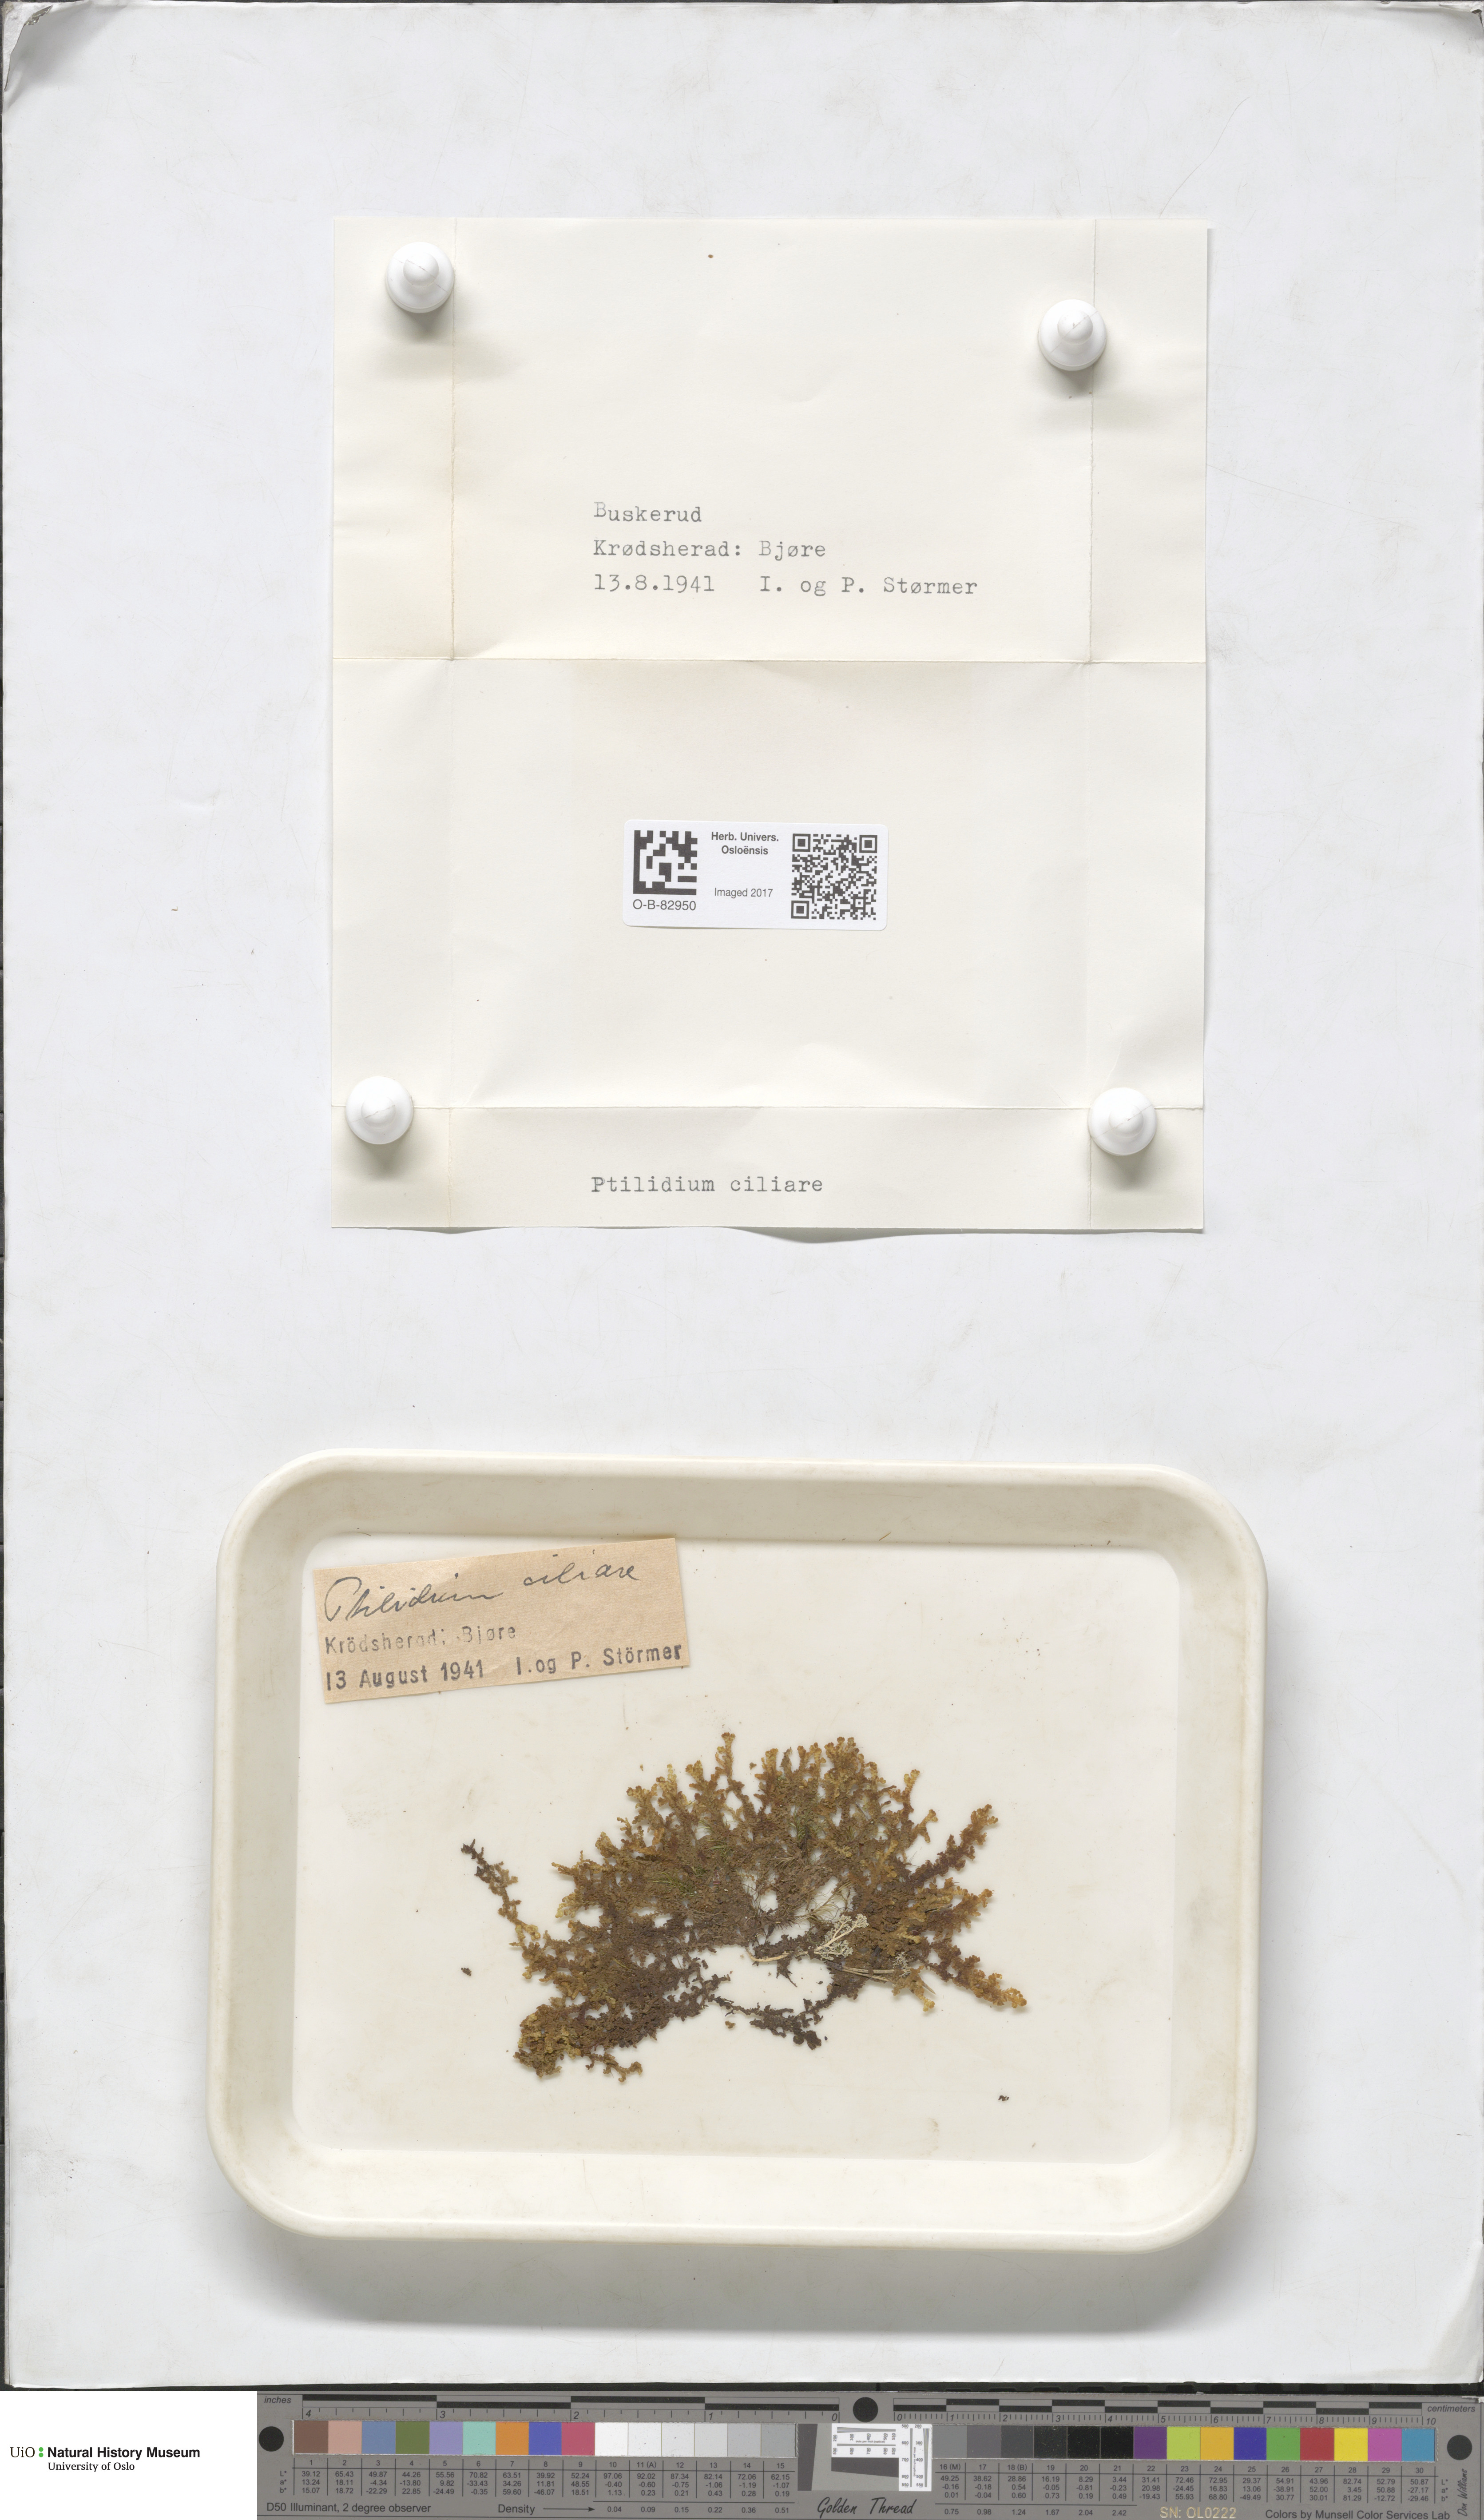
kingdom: Plantae
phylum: Marchantiophyta
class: Jungermanniopsida
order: Ptilidiales
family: Ptilidiaceae
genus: Ptilidium
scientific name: Ptilidium ciliare
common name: Ciliate fringewort
